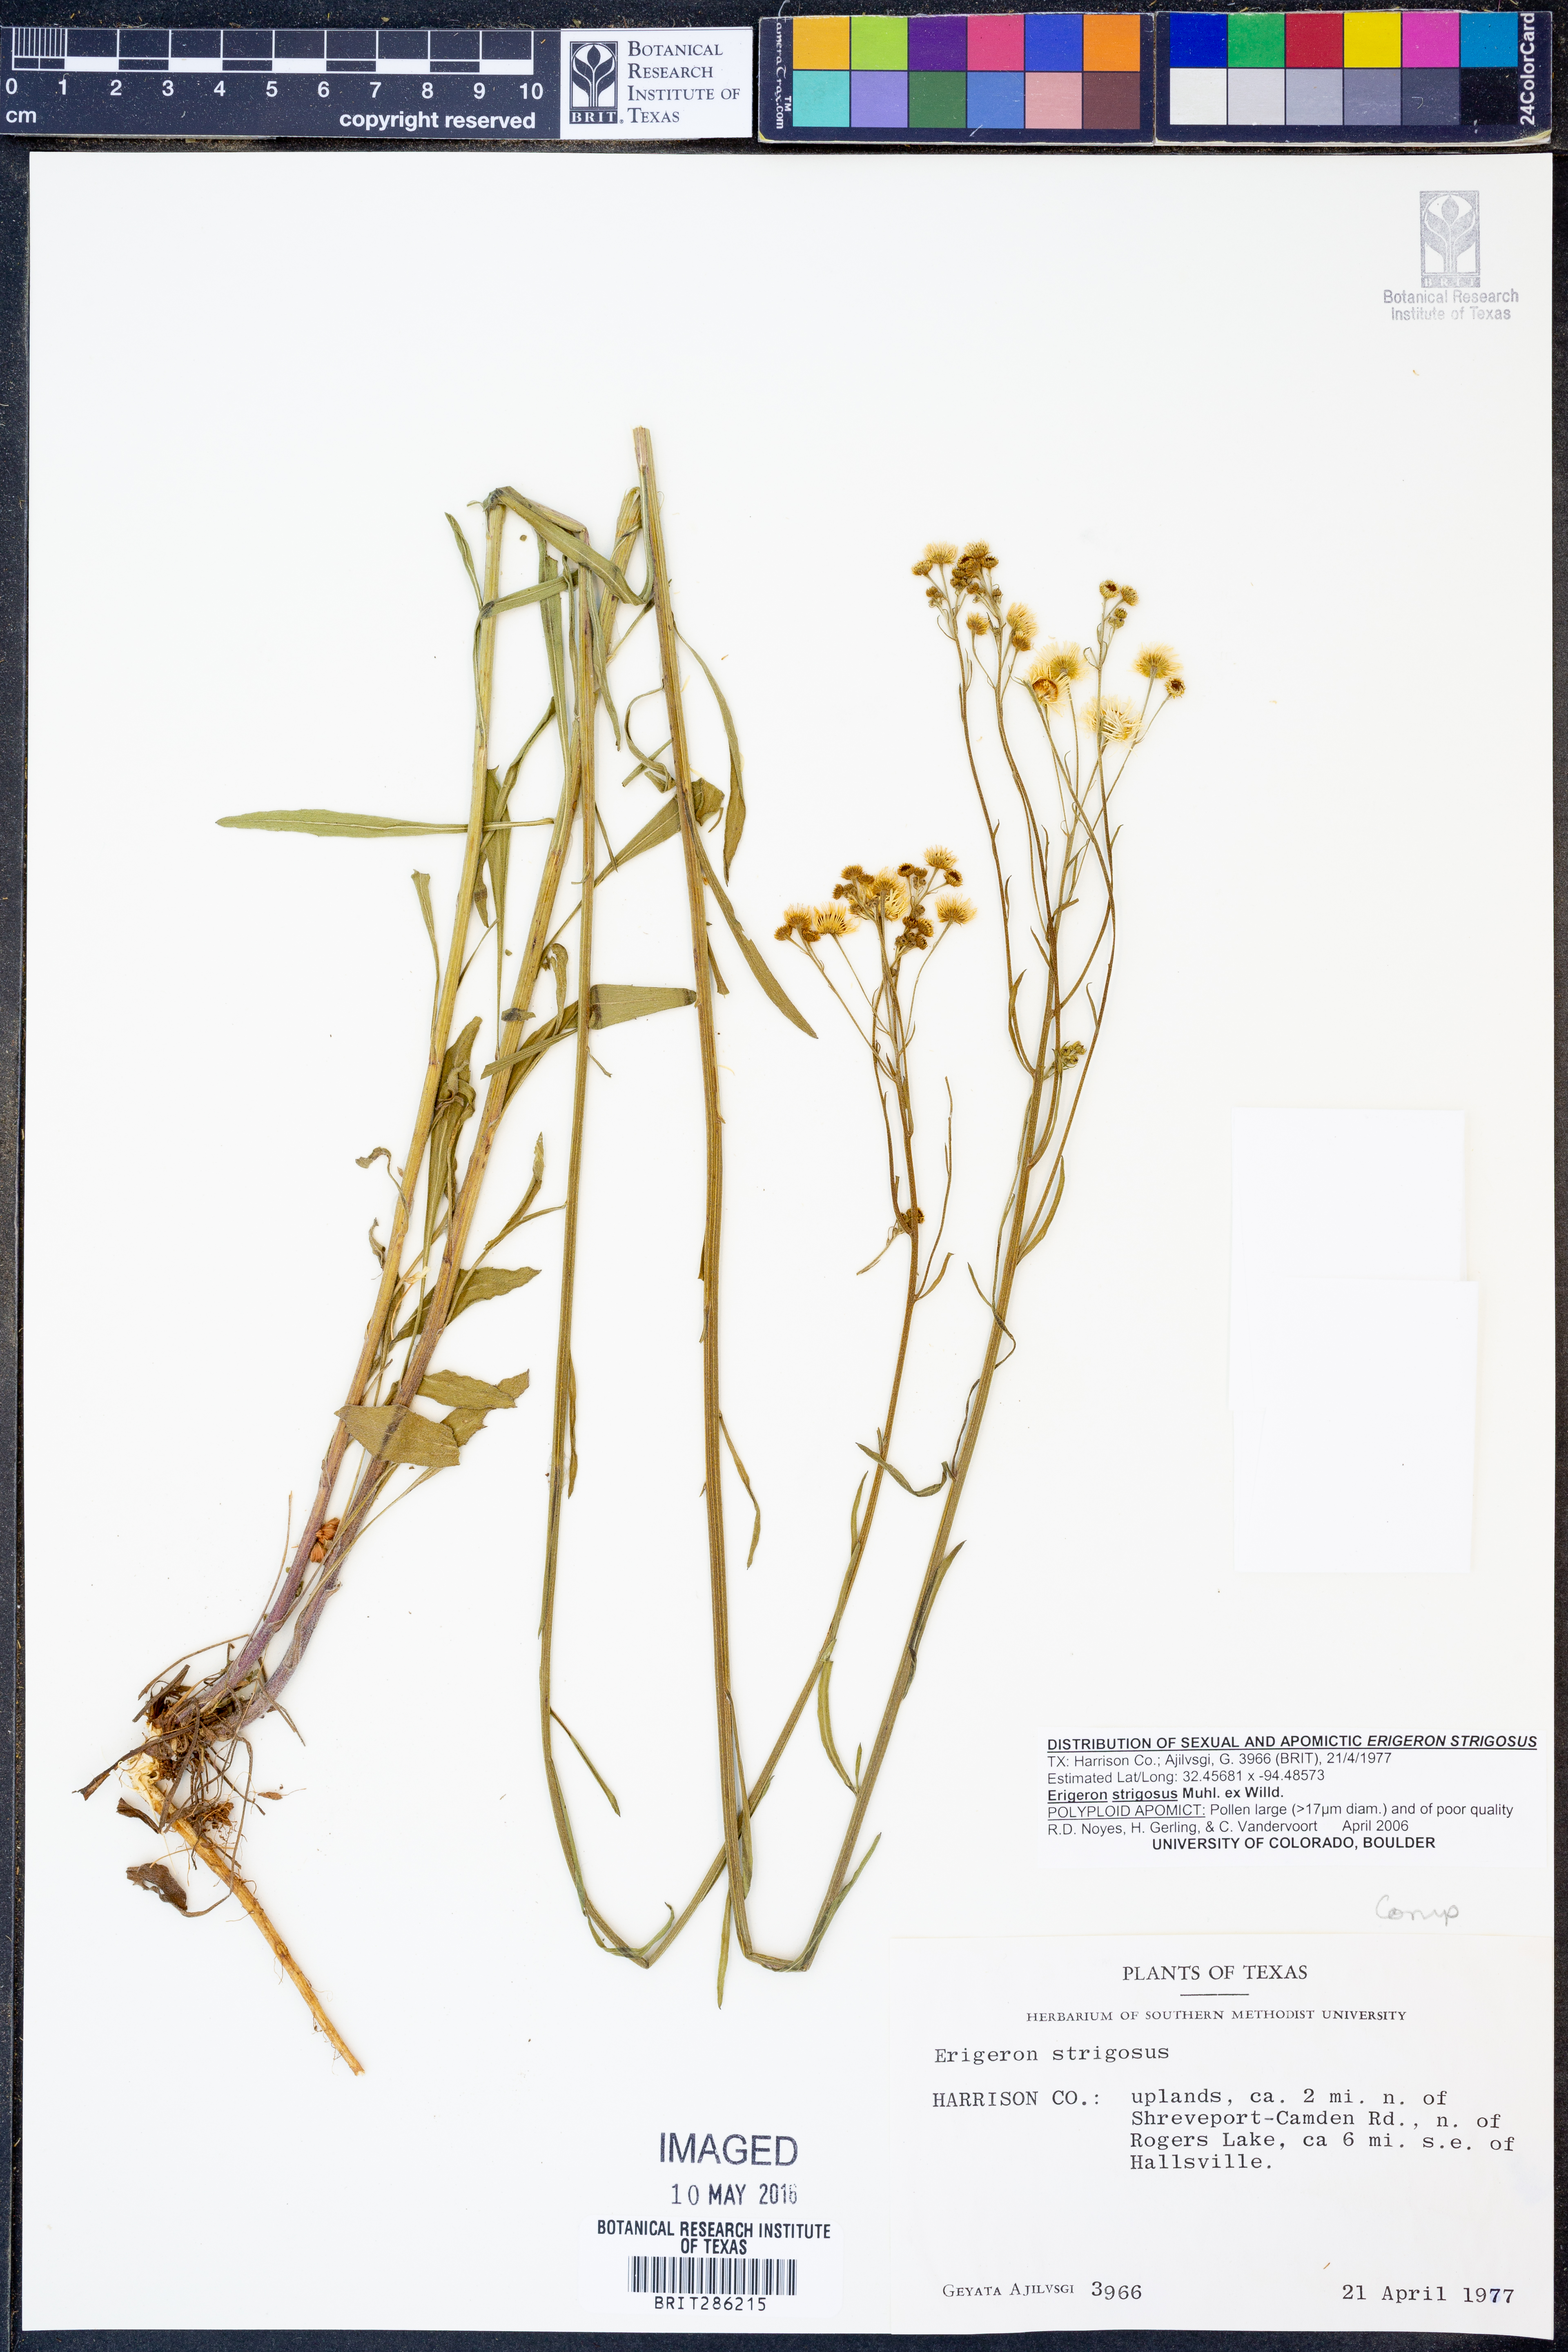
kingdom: Plantae
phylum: Tracheophyta
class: Magnoliopsida
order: Asterales
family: Asteraceae
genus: Erigeron
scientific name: Erigeron strigosus
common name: Common eastern fleabane
